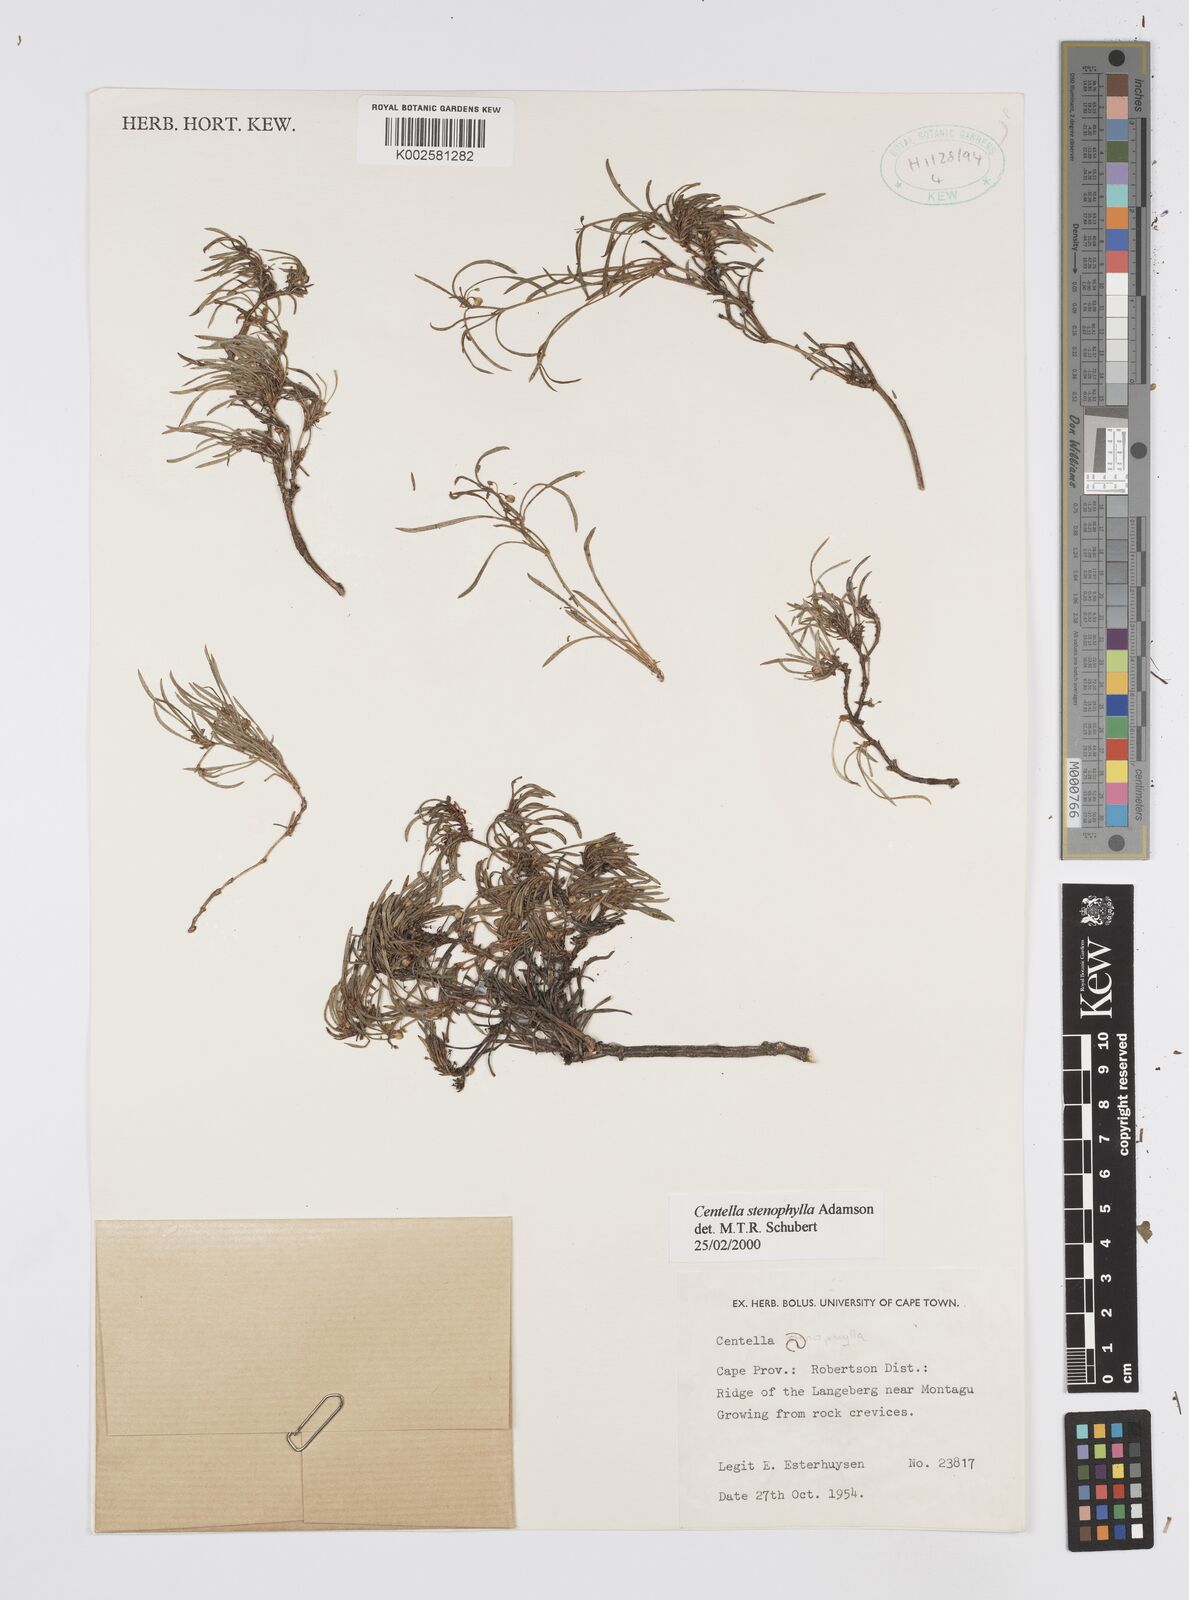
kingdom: Plantae
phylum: Tracheophyta
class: Magnoliopsida
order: Apiales
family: Apiaceae
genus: Centella
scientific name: Centella stenophylla
